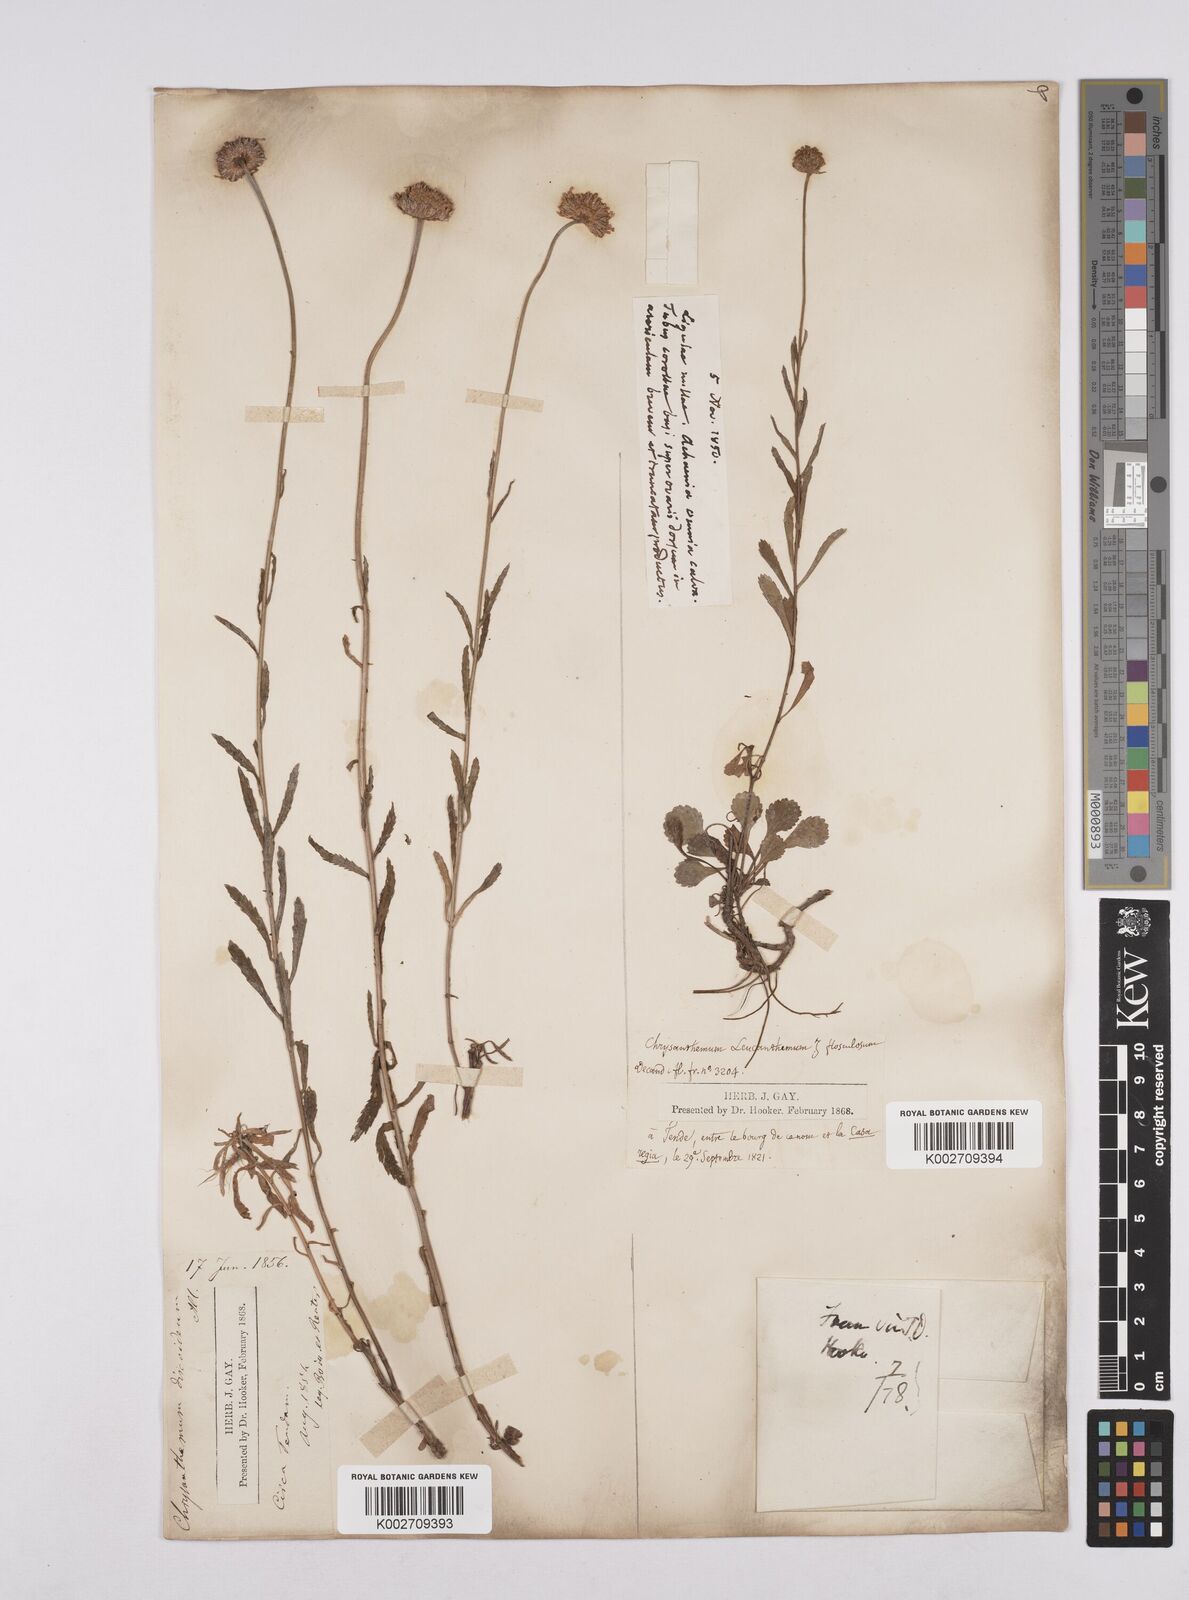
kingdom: Plantae
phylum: Tracheophyta
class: Magnoliopsida
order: Asterales
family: Asteraceae
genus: Leucanthemum
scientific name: Leucanthemum
